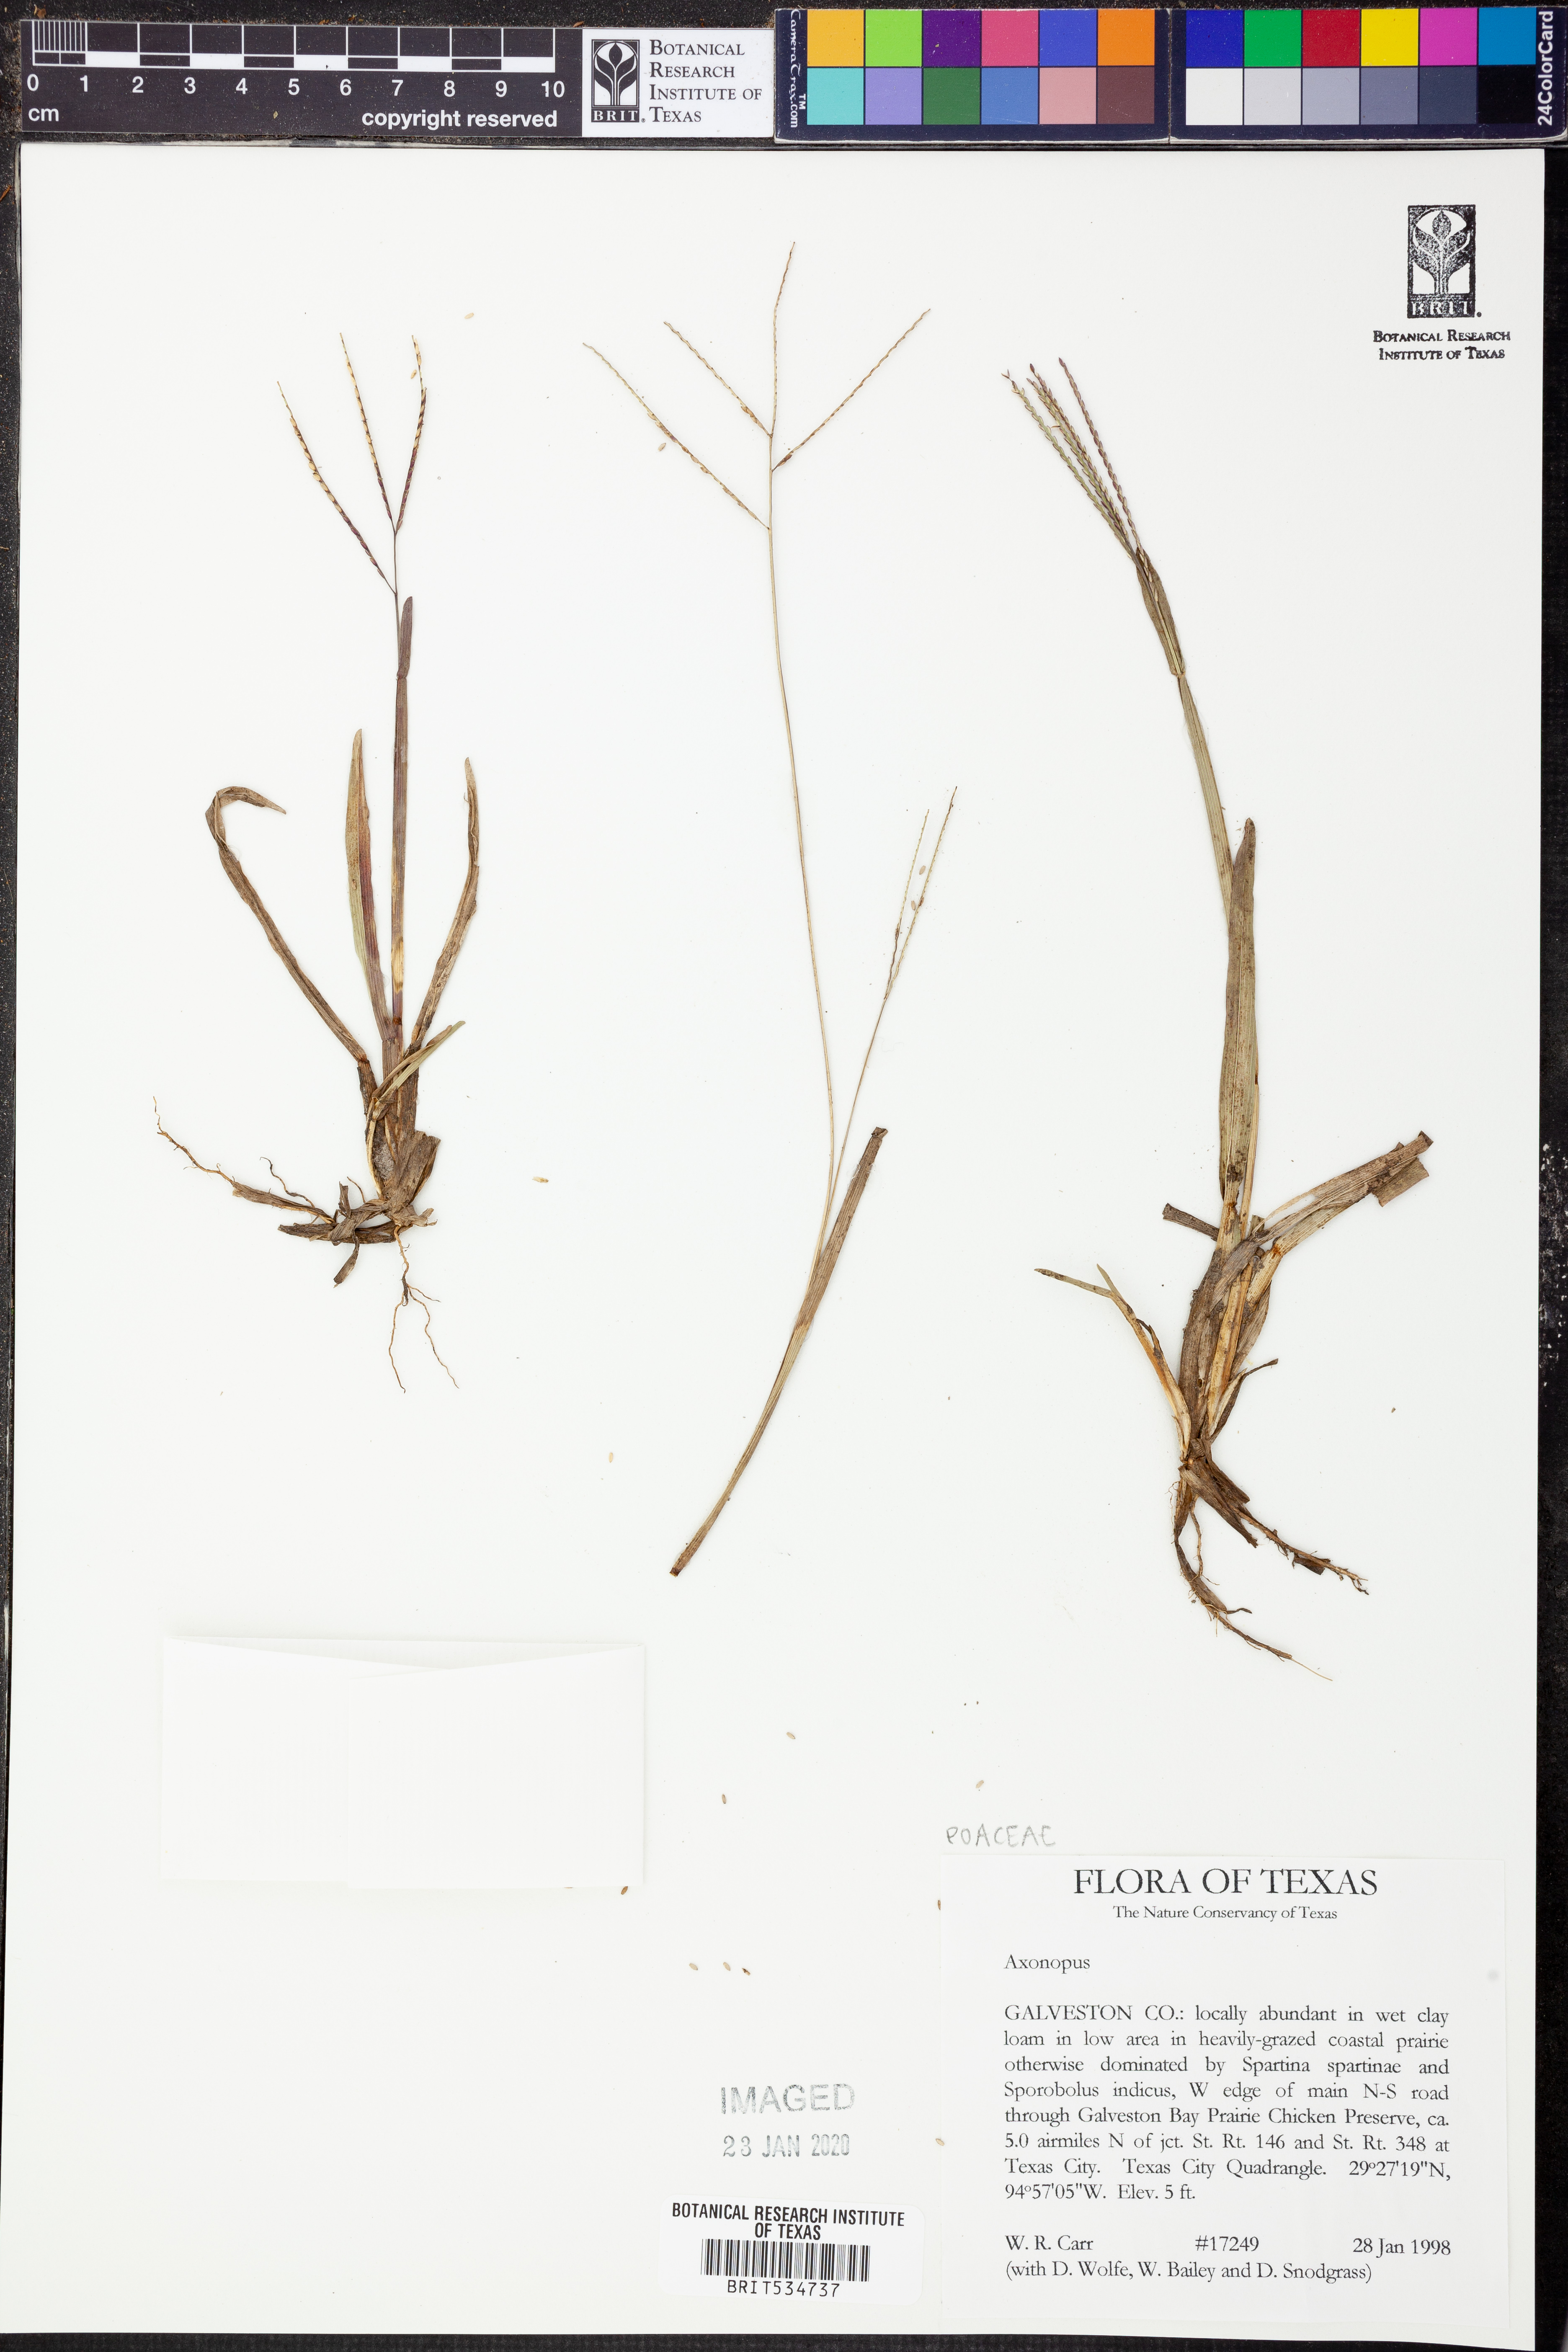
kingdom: Plantae
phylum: Tracheophyta
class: Liliopsida
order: Poales
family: Poaceae
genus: Axonopus
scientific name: Axonopus
